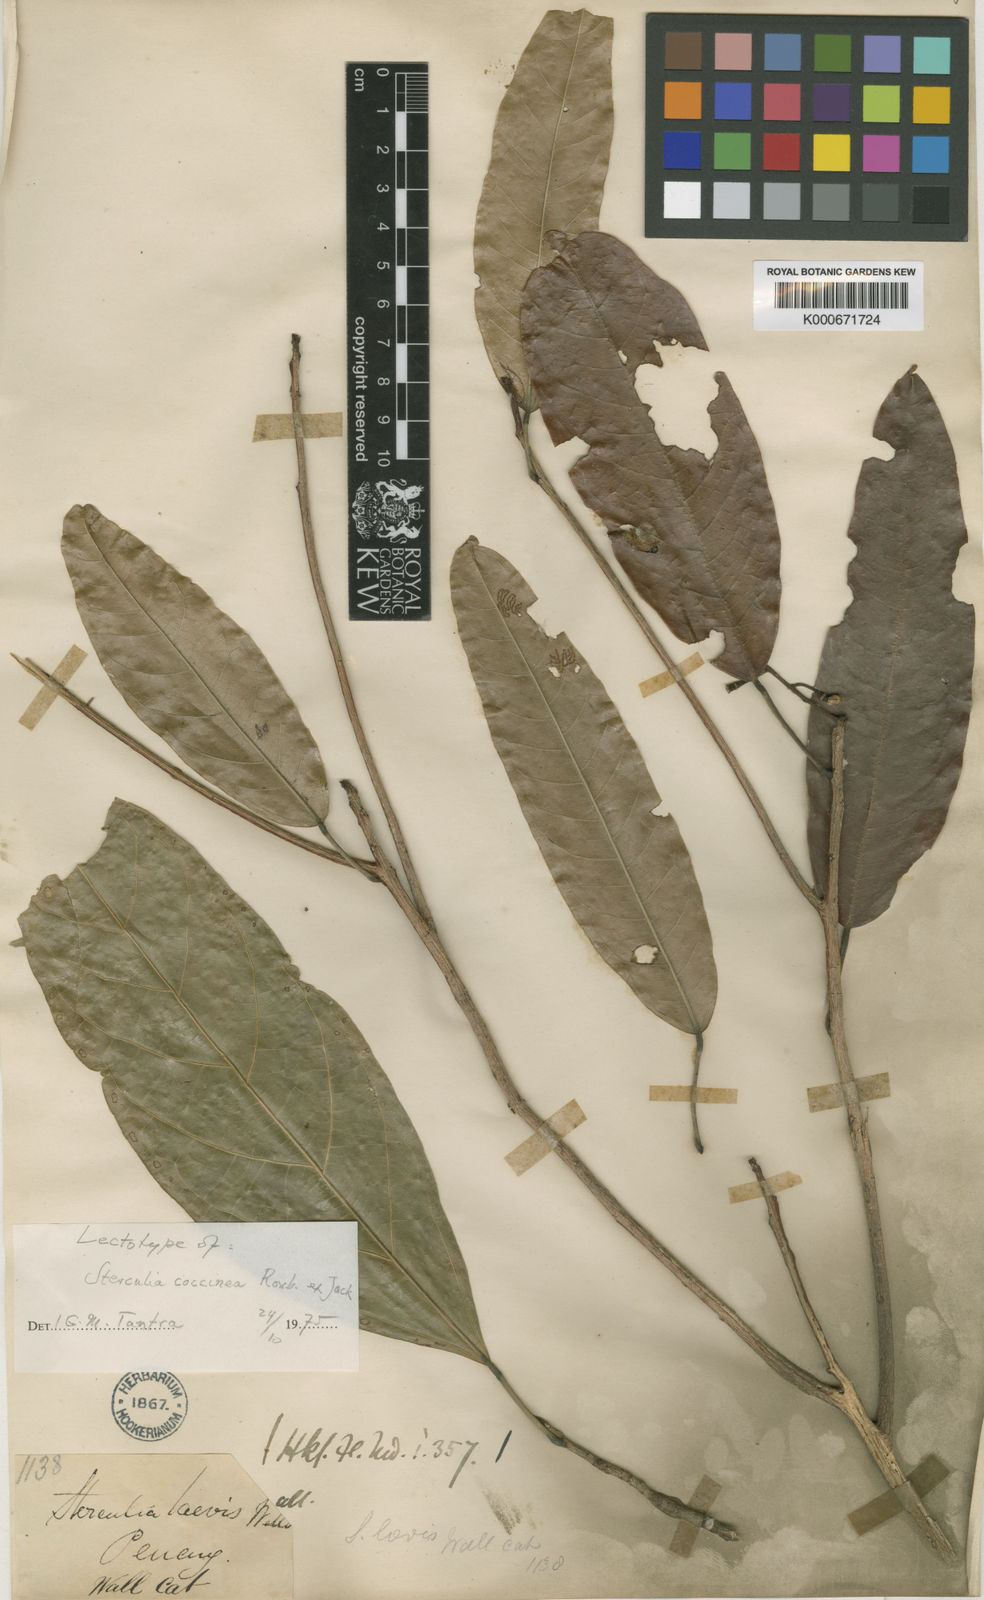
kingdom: Plantae
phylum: Tracheophyta
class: Magnoliopsida
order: Malvales
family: Malvaceae
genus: Sterculia
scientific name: Sterculia
